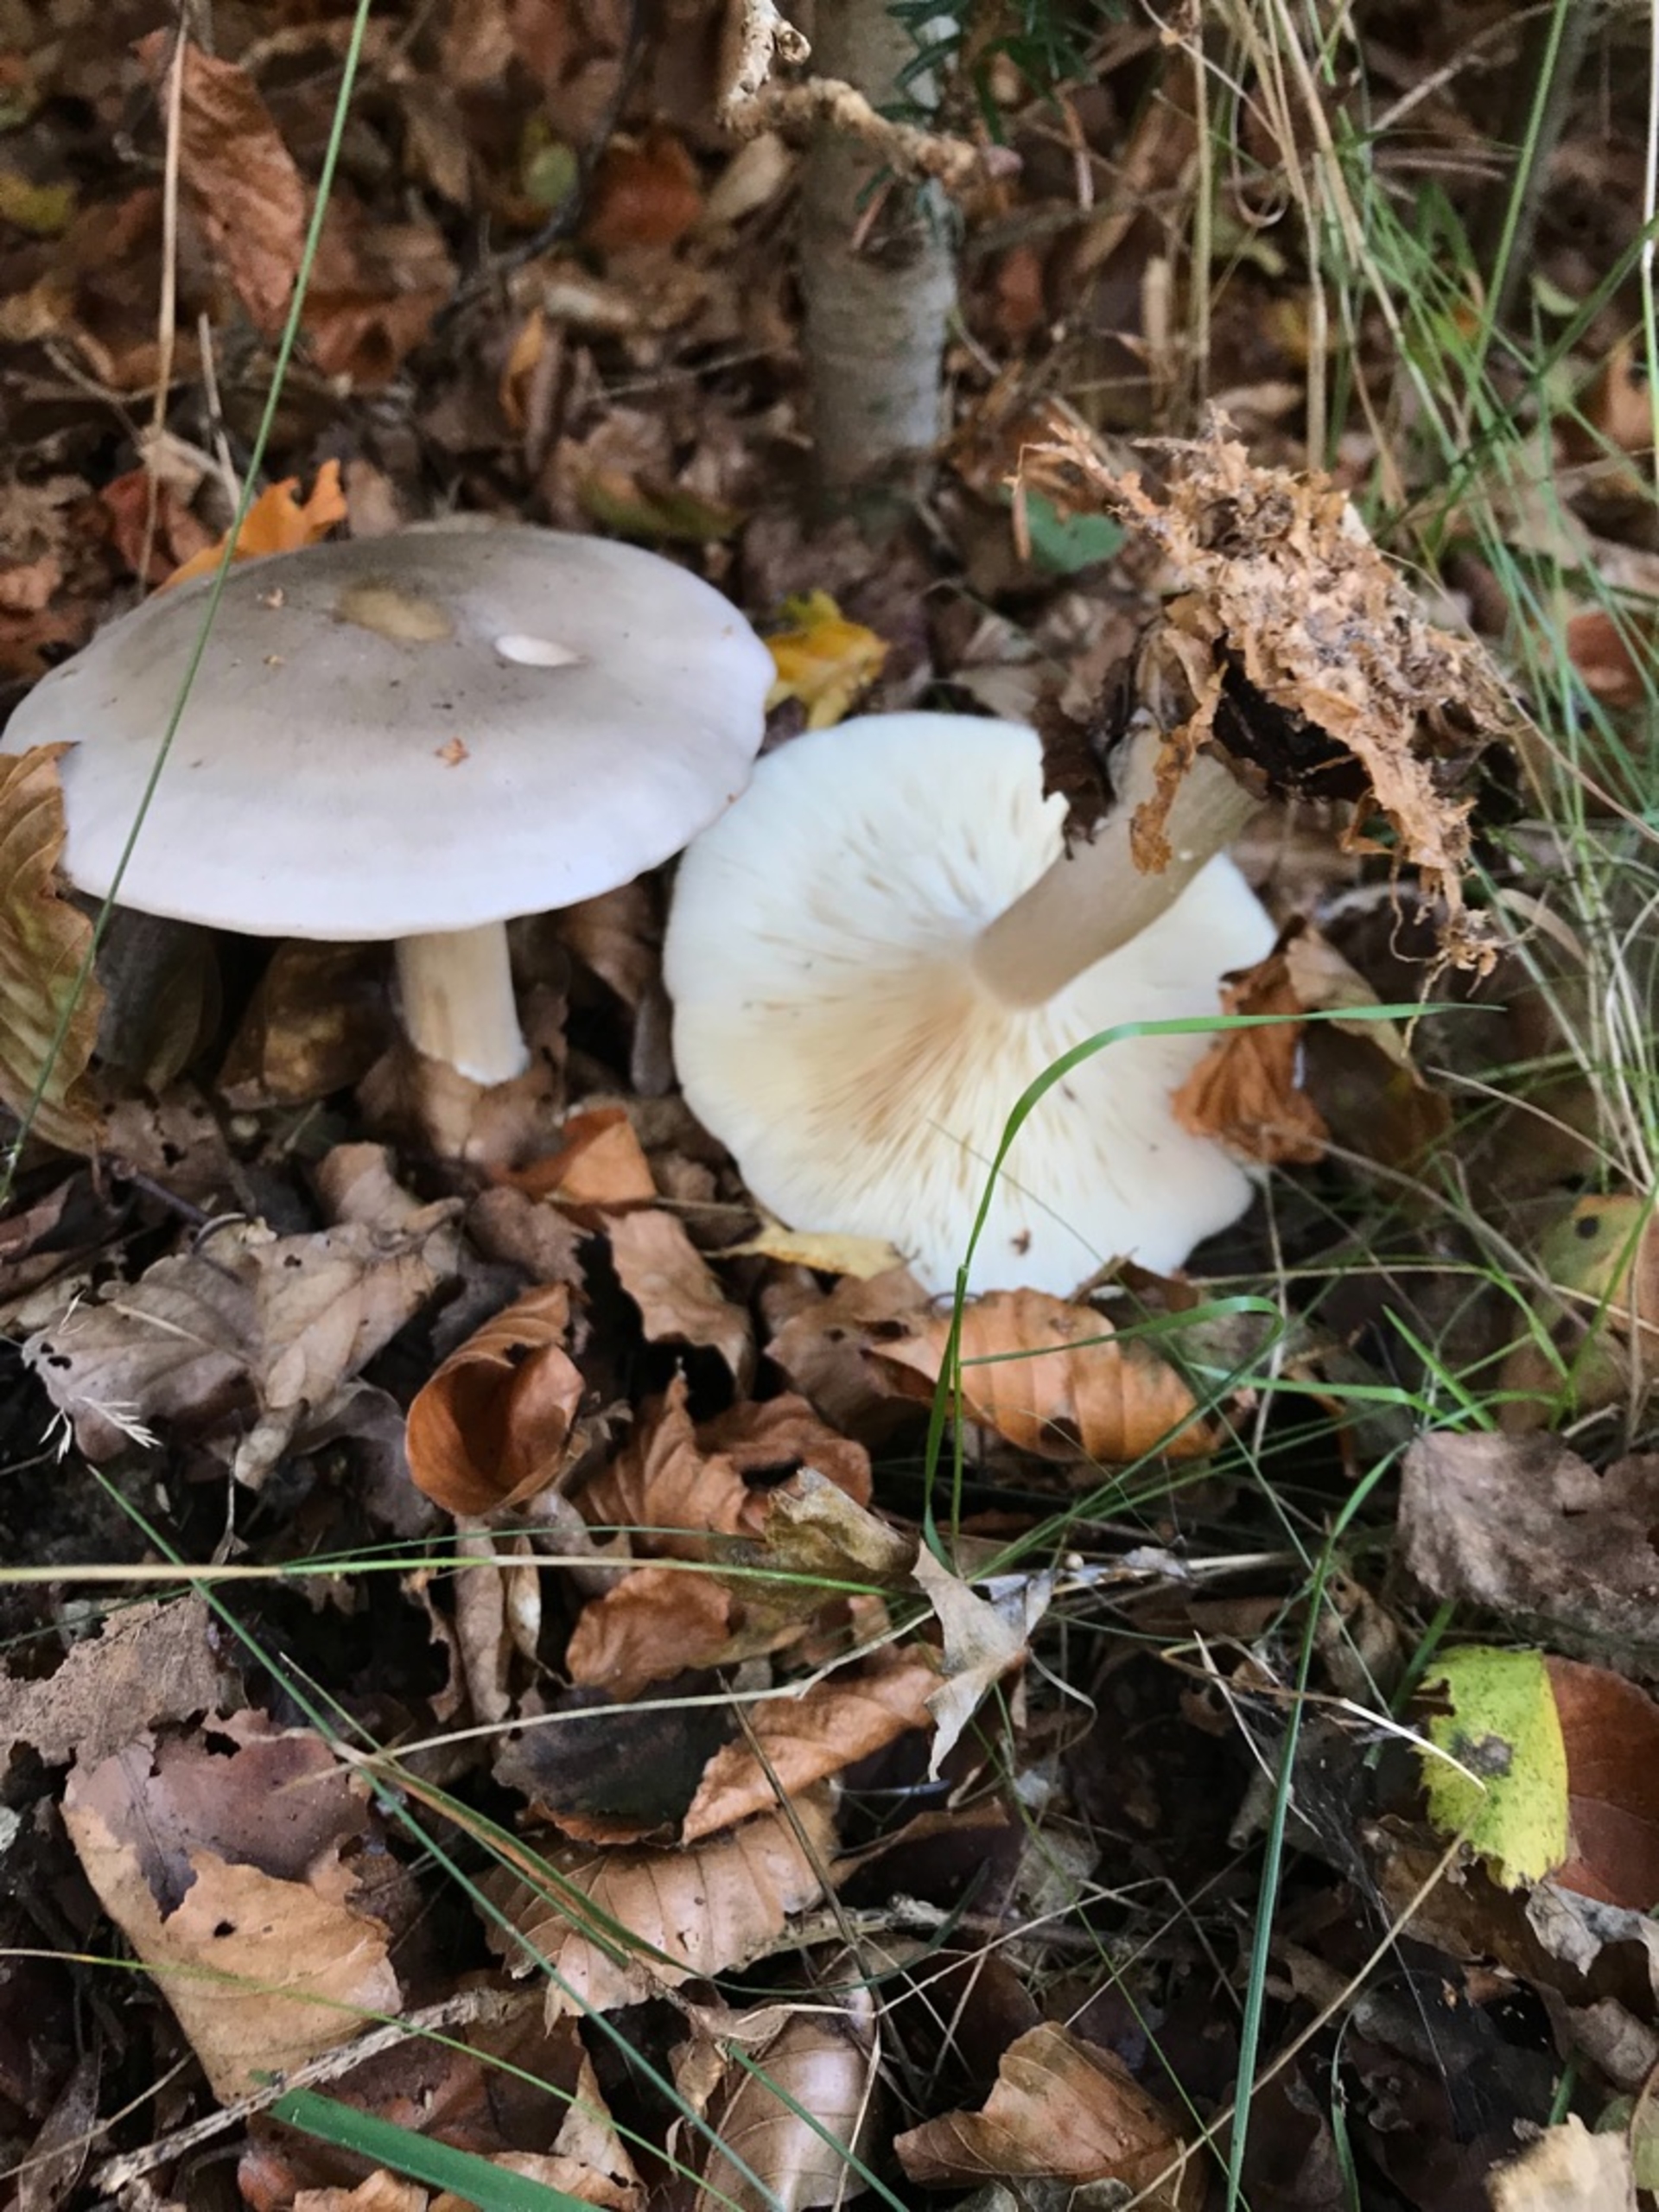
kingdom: Fungi
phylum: Basidiomycota
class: Agaricomycetes
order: Agaricales
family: Tricholomataceae
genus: Clitocybe
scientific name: Clitocybe nebularis
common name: Tåge-tragthat
